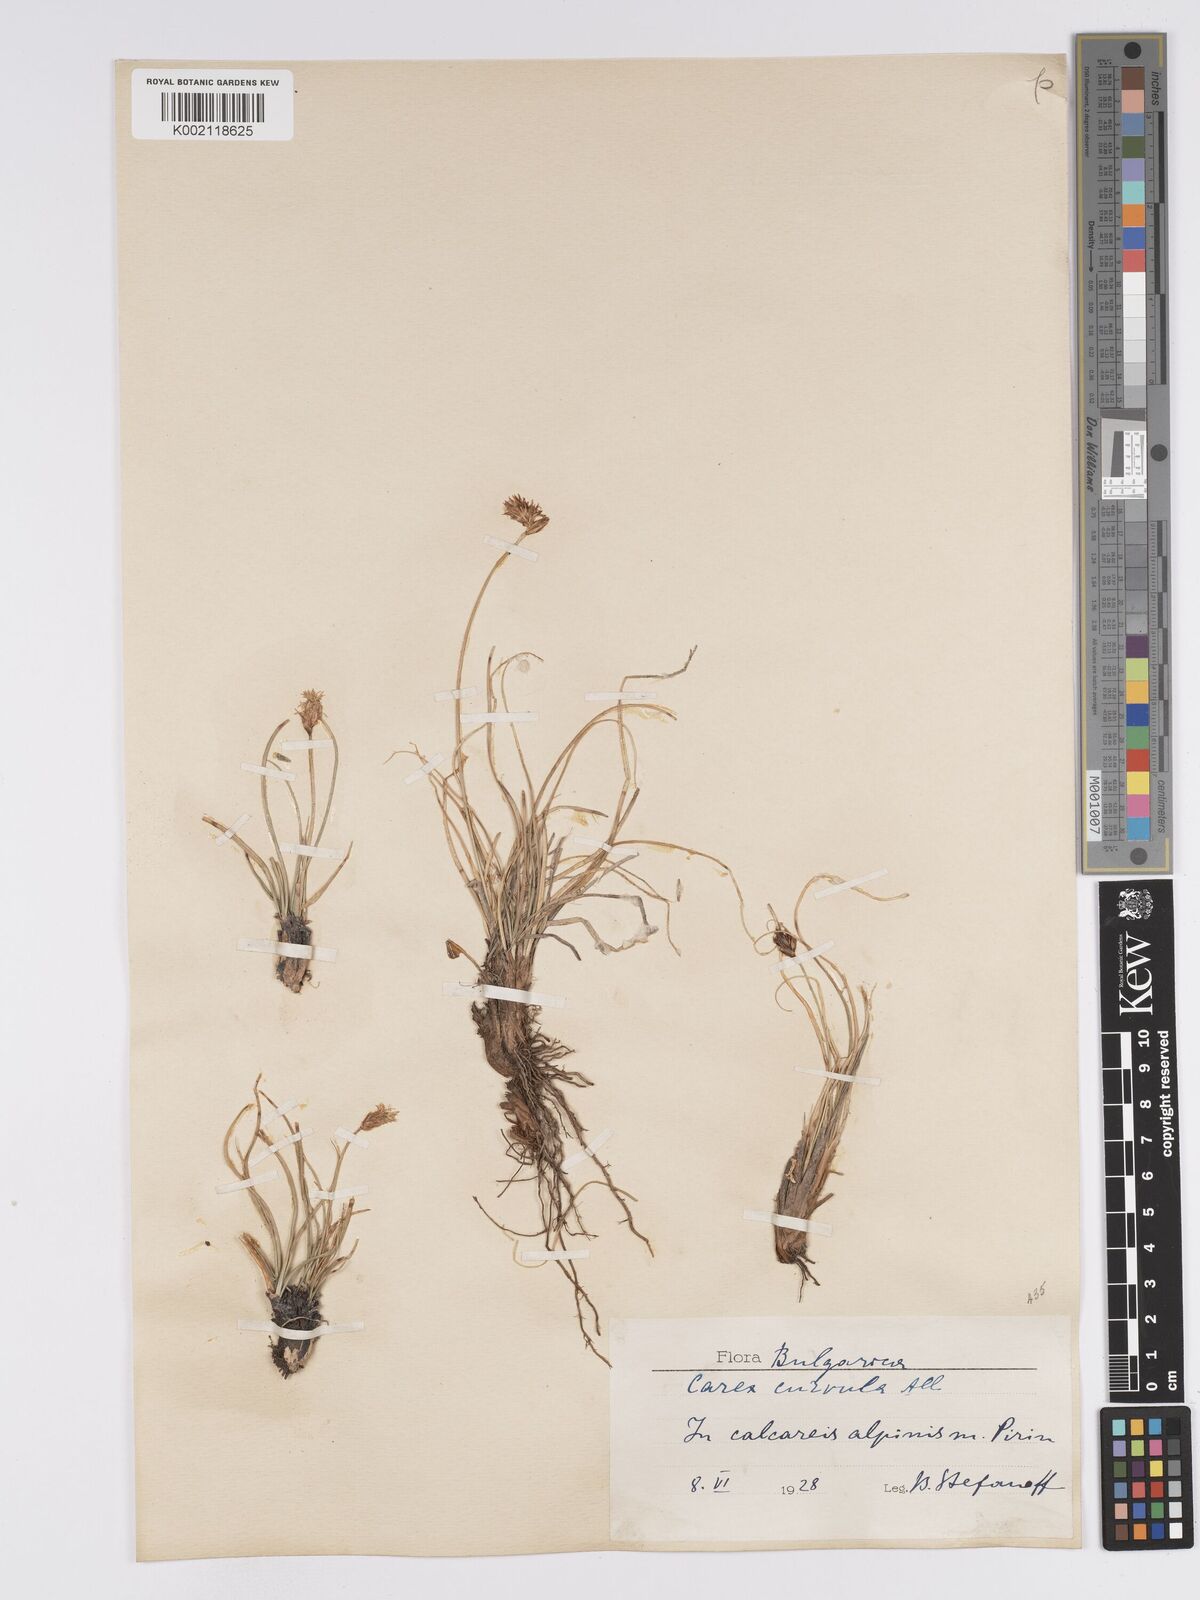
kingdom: Plantae
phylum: Tracheophyta
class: Liliopsida
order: Poales
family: Cyperaceae
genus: Carex
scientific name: Carex curvula
